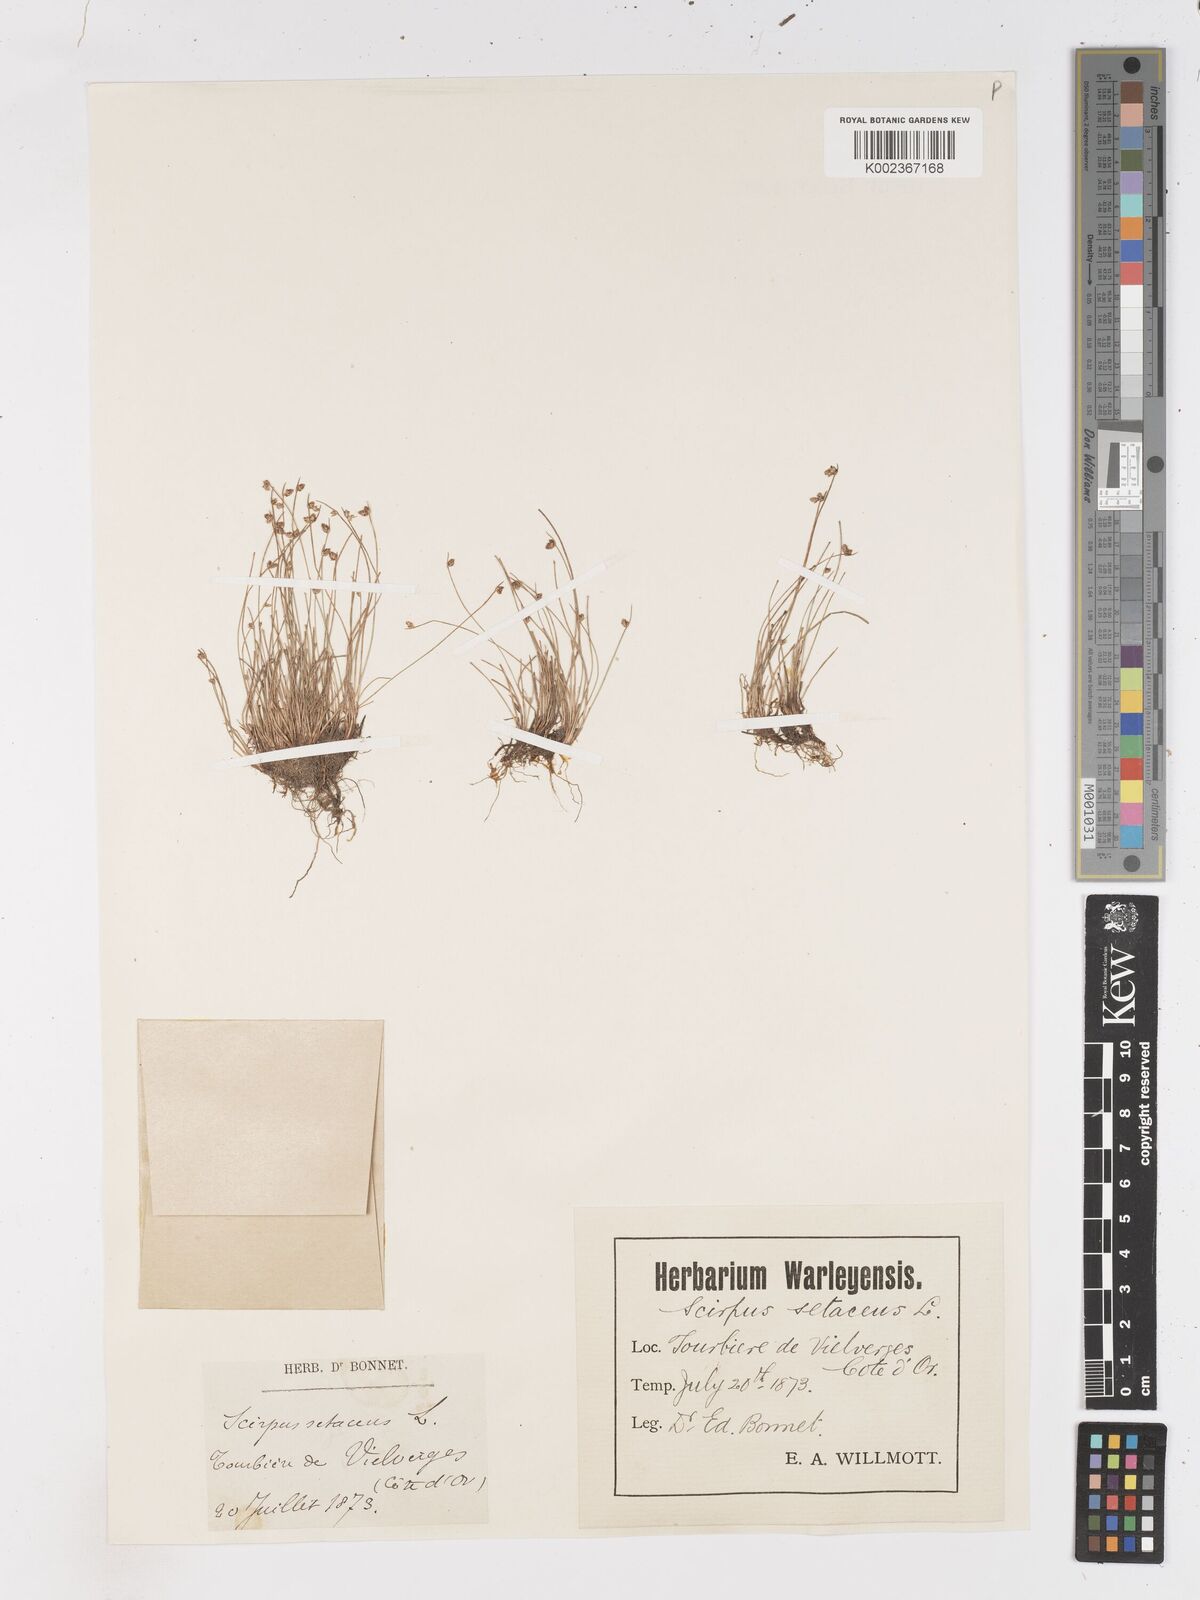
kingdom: Plantae
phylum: Tracheophyta
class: Liliopsida
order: Poales
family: Cyperaceae
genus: Isolepis
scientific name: Isolepis setacea
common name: Bristle club-rush
